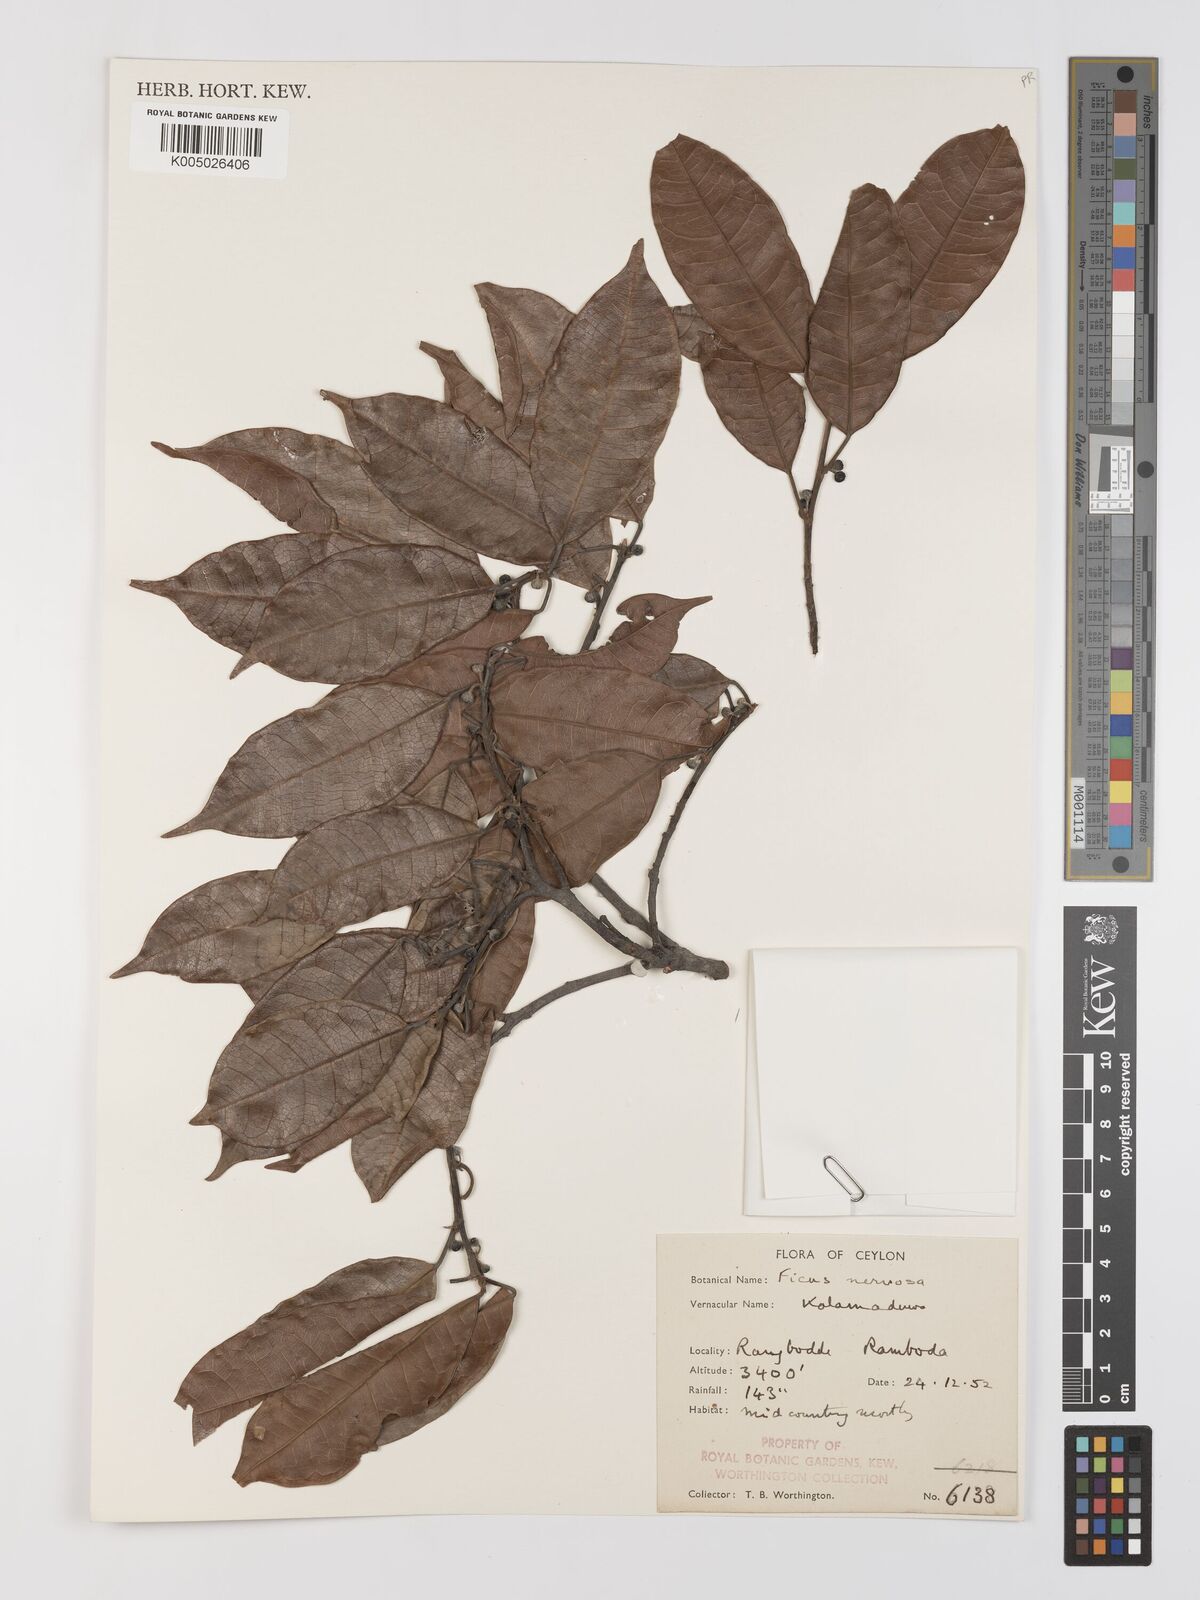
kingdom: Plantae
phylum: Tracheophyta
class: Magnoliopsida
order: Rosales
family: Moraceae
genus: Ficus
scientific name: Ficus nervosa
